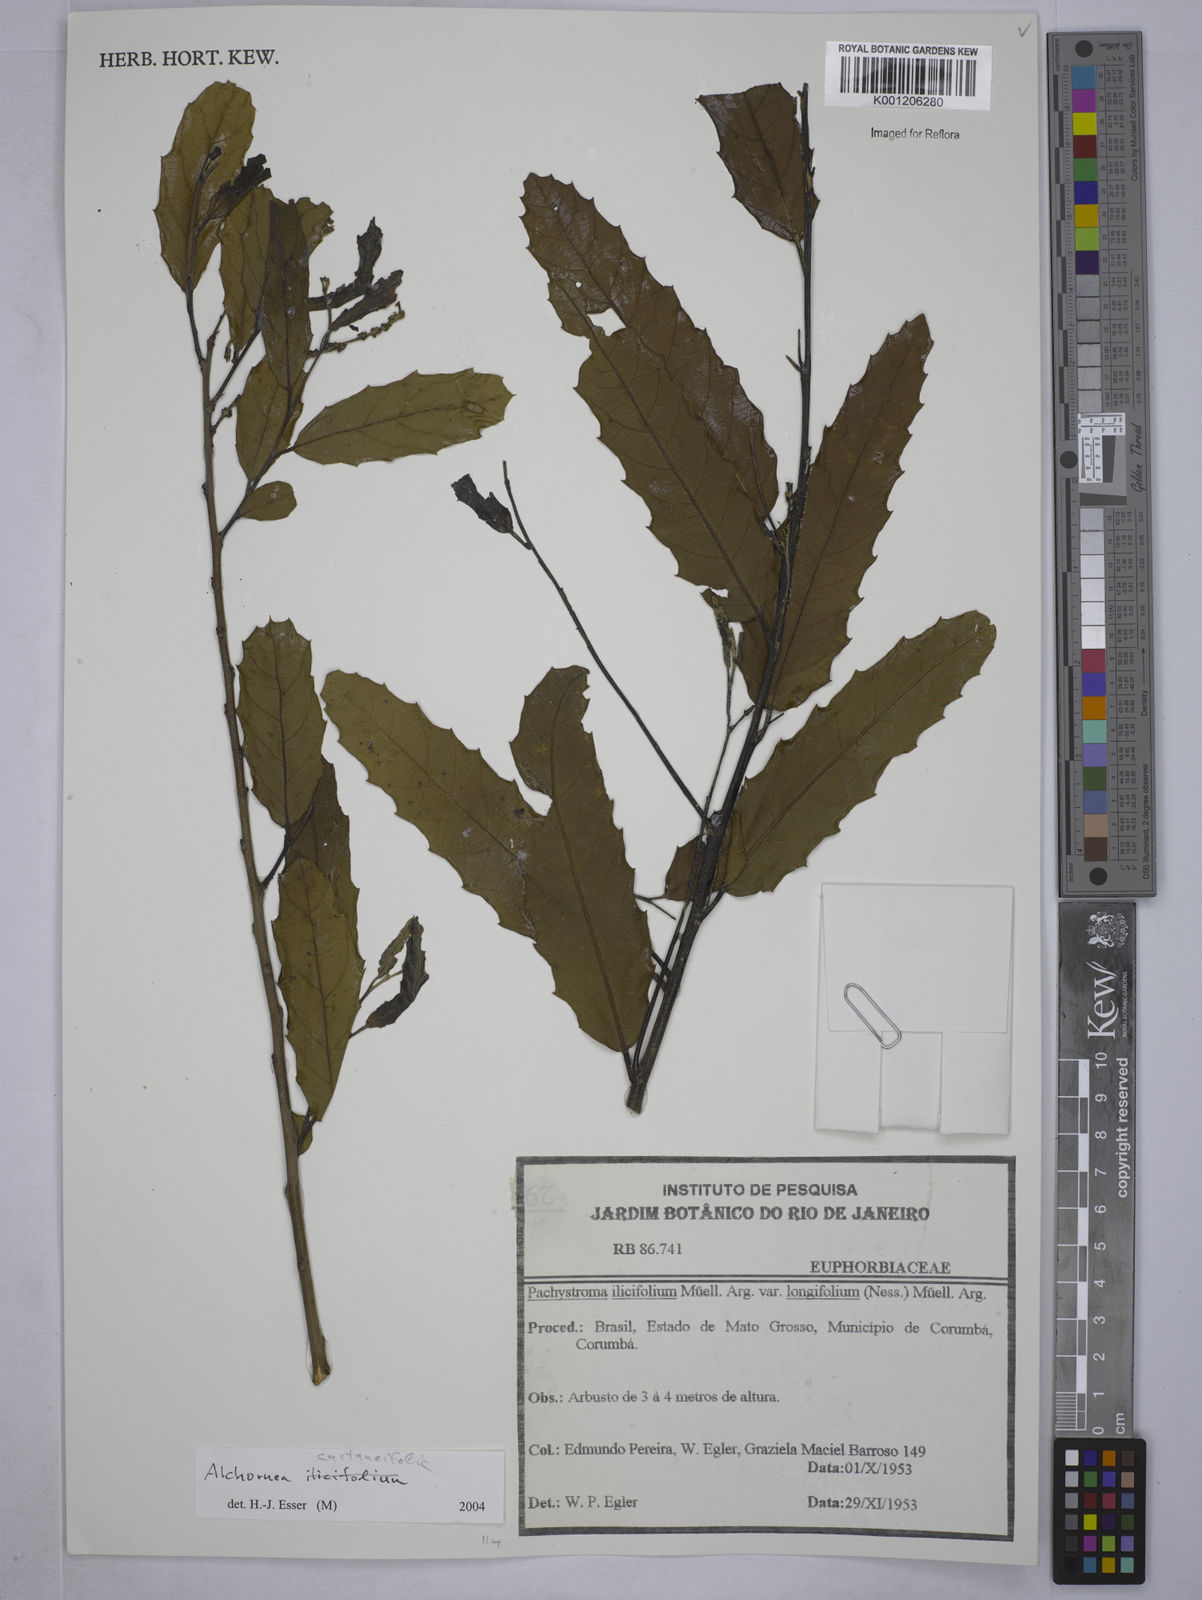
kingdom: Plantae
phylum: Tracheophyta
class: Magnoliopsida
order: Malpighiales
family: Euphorbiaceae
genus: Alchornea
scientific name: Alchornea castaneifolia
